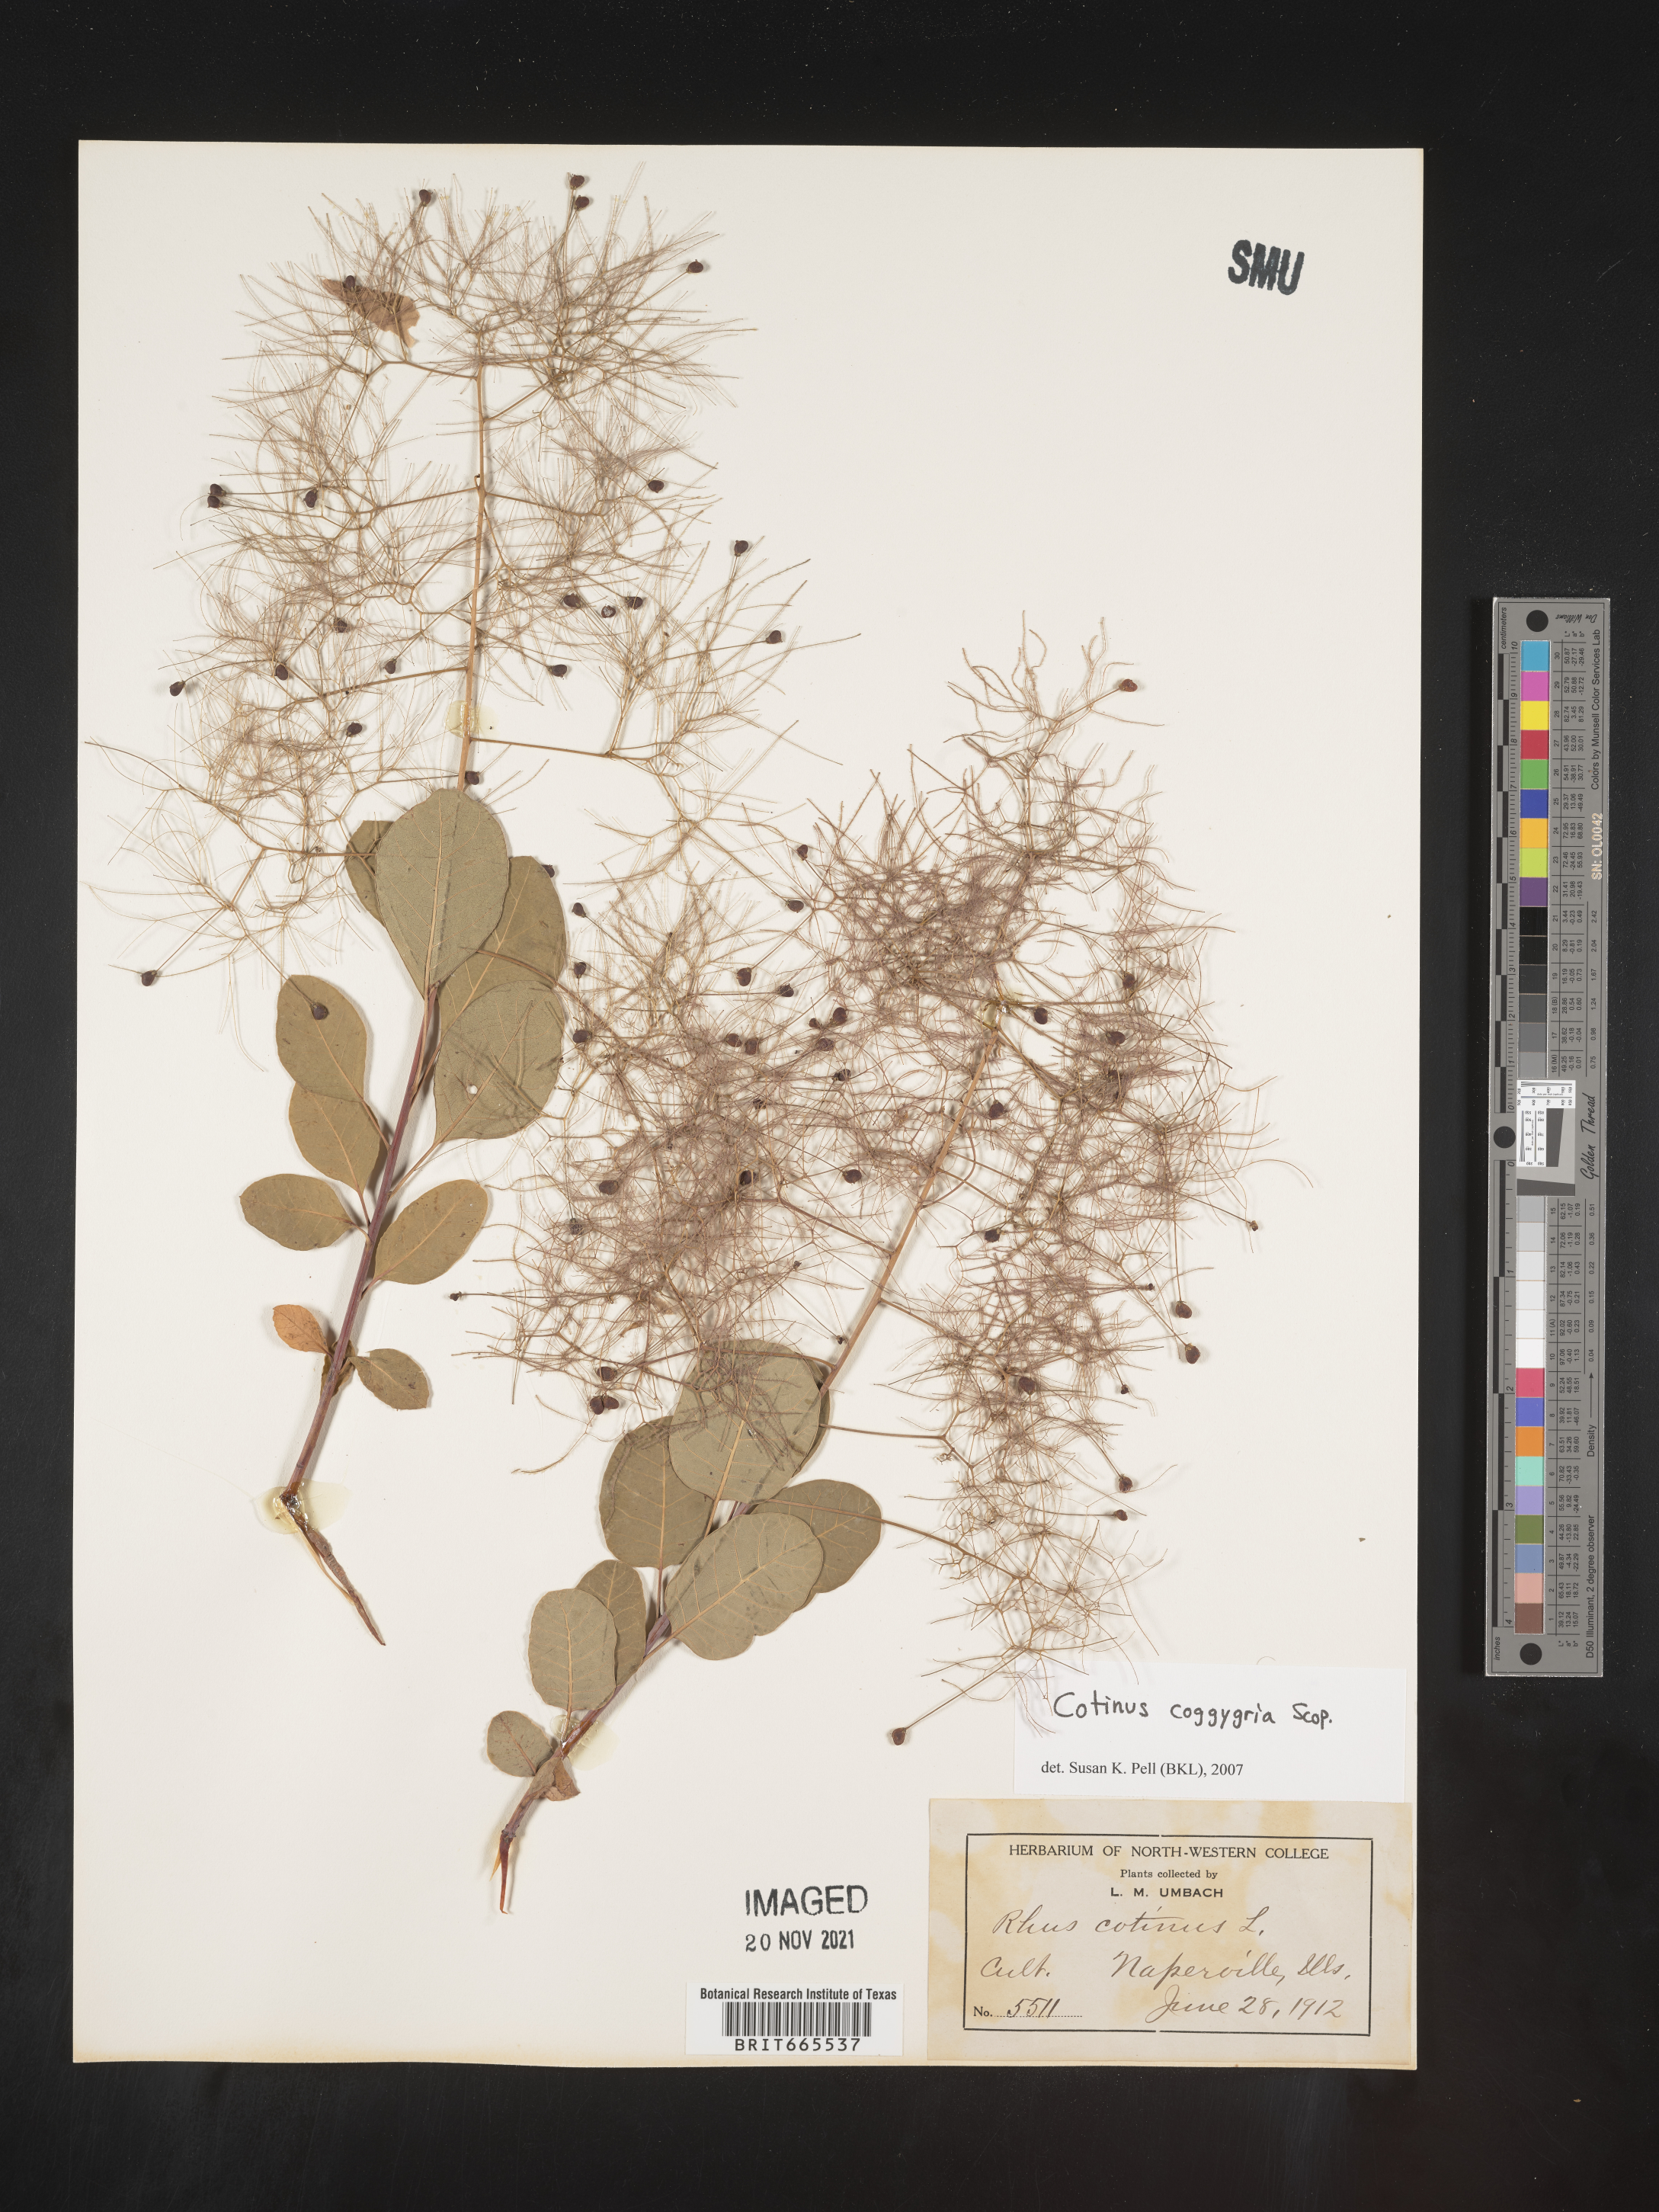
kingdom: Plantae
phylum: Tracheophyta
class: Magnoliopsida
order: Sapindales
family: Anacardiaceae
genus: Cotinus
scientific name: Cotinus coggygria
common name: Smoke-tree
